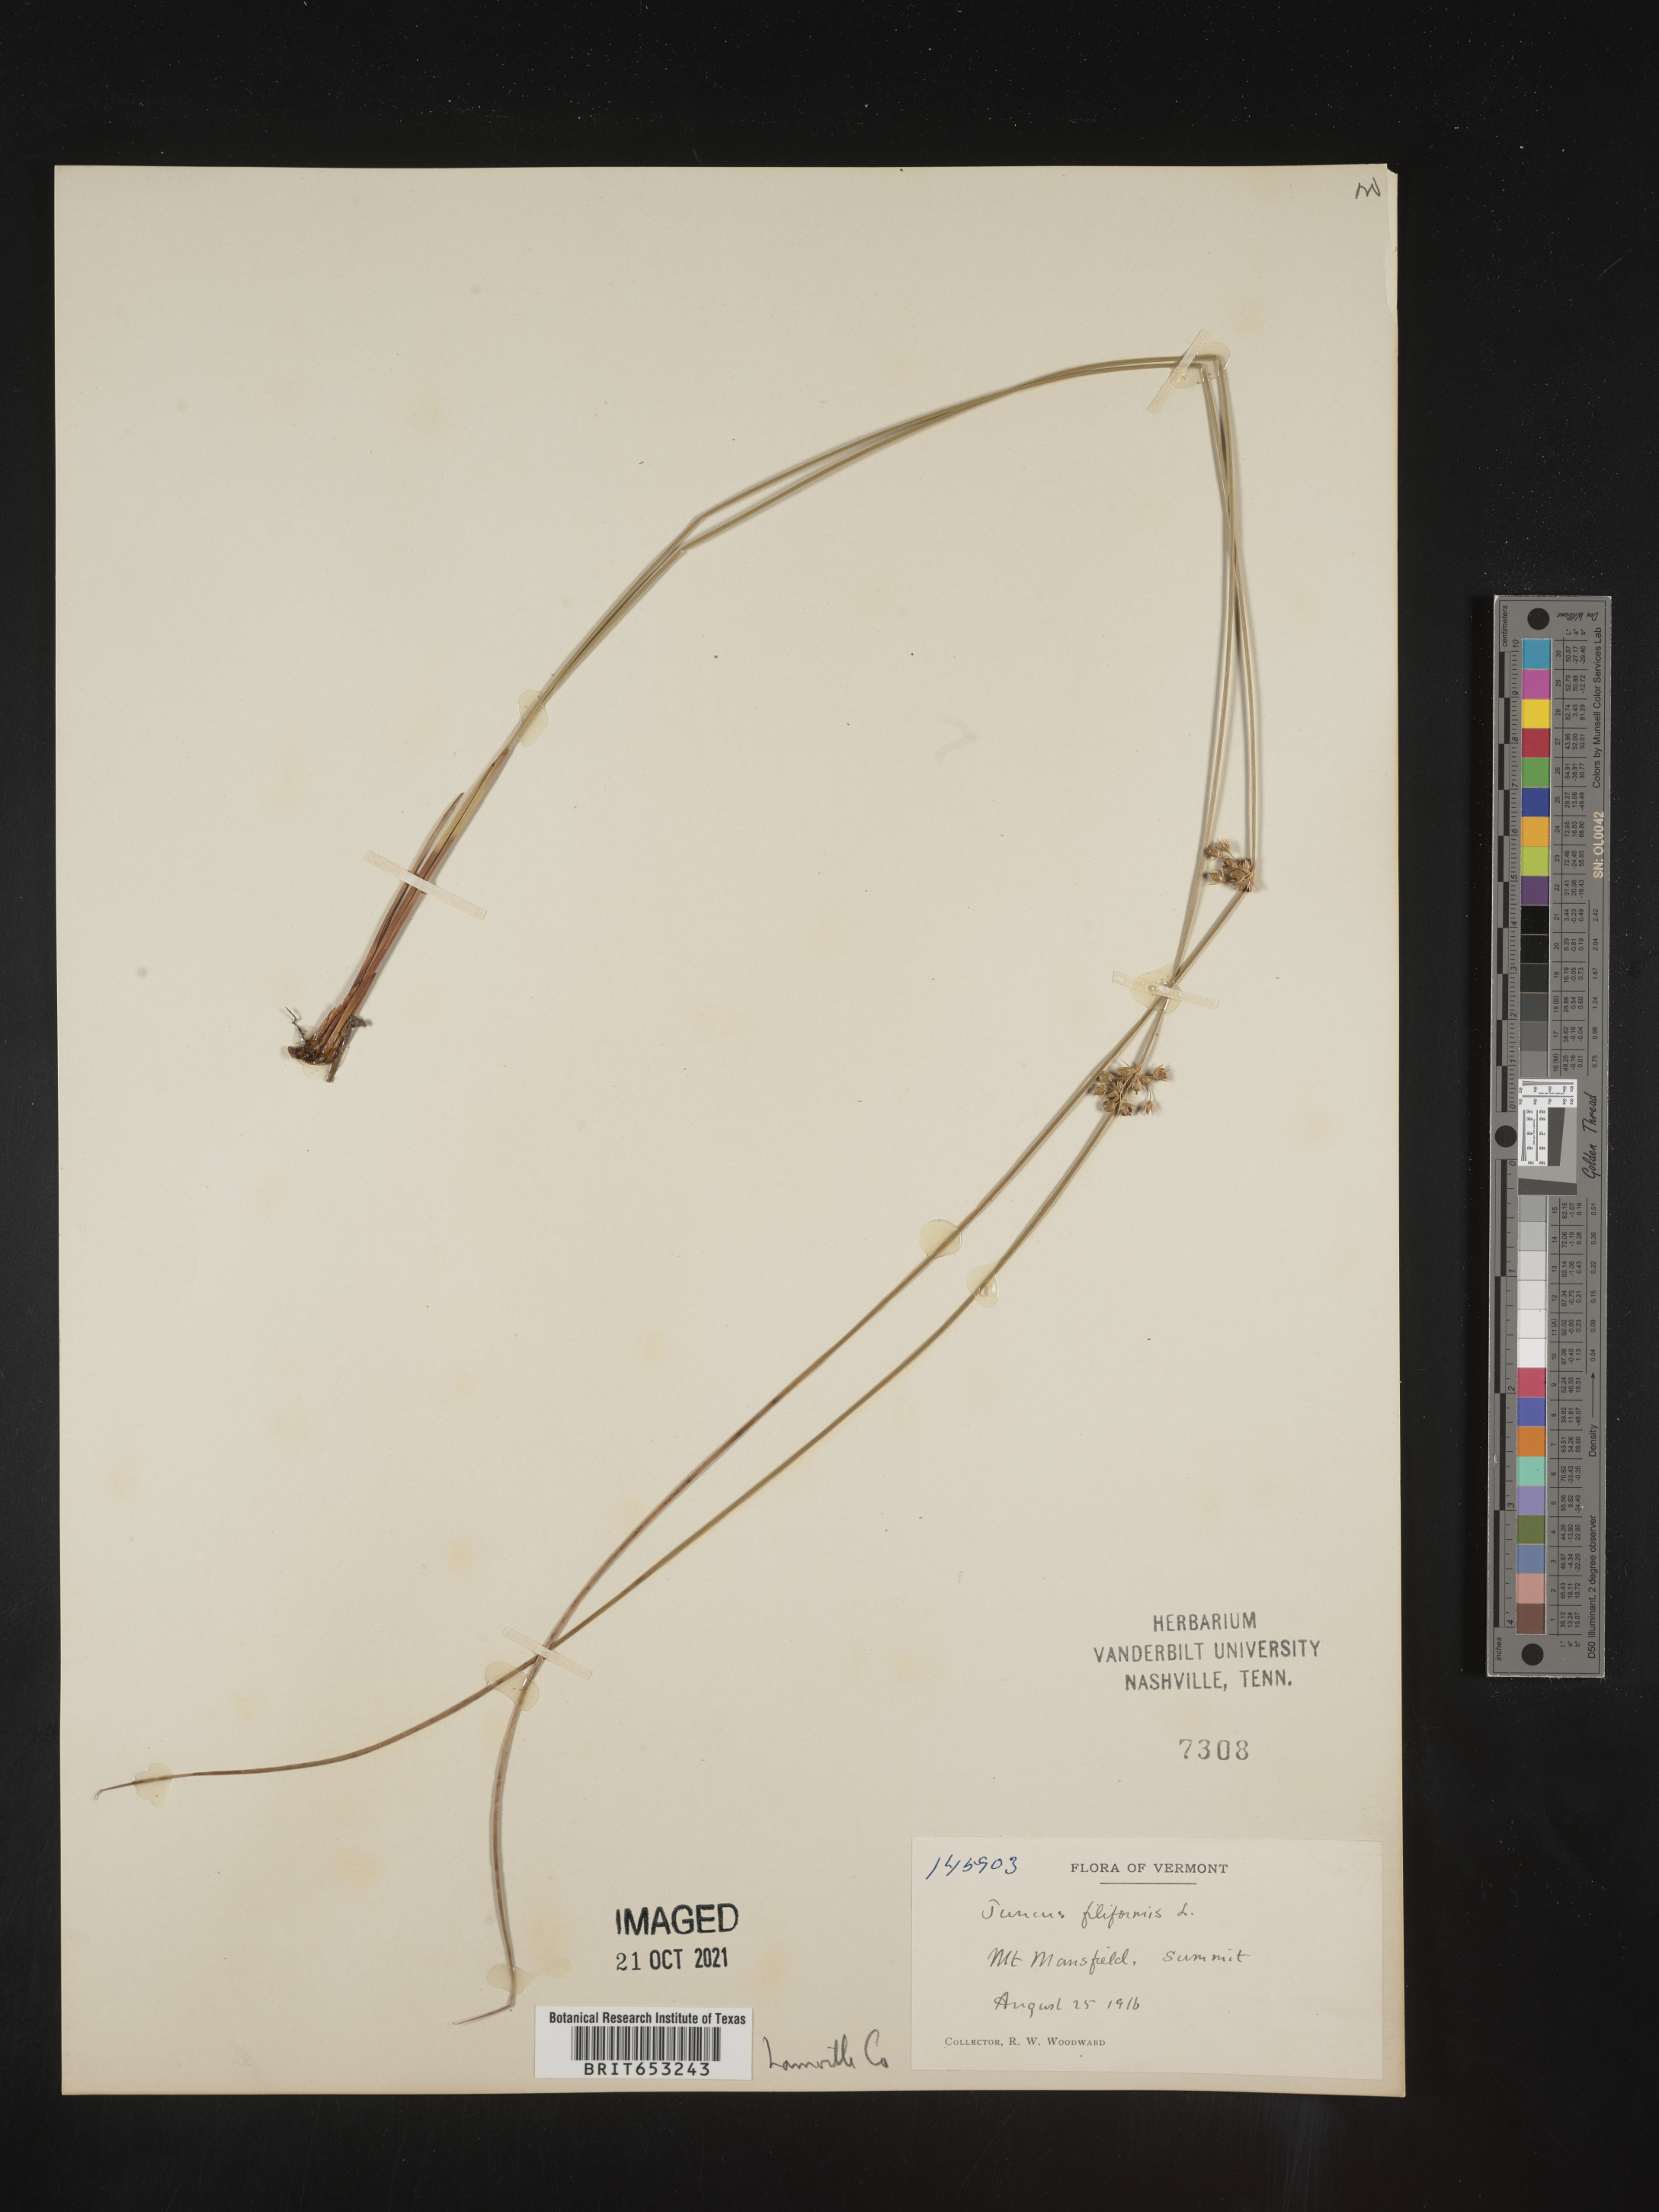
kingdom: Plantae
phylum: Tracheophyta
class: Liliopsida
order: Poales
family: Juncaceae
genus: Juncus
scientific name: Juncus filiformis
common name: Thread rush
